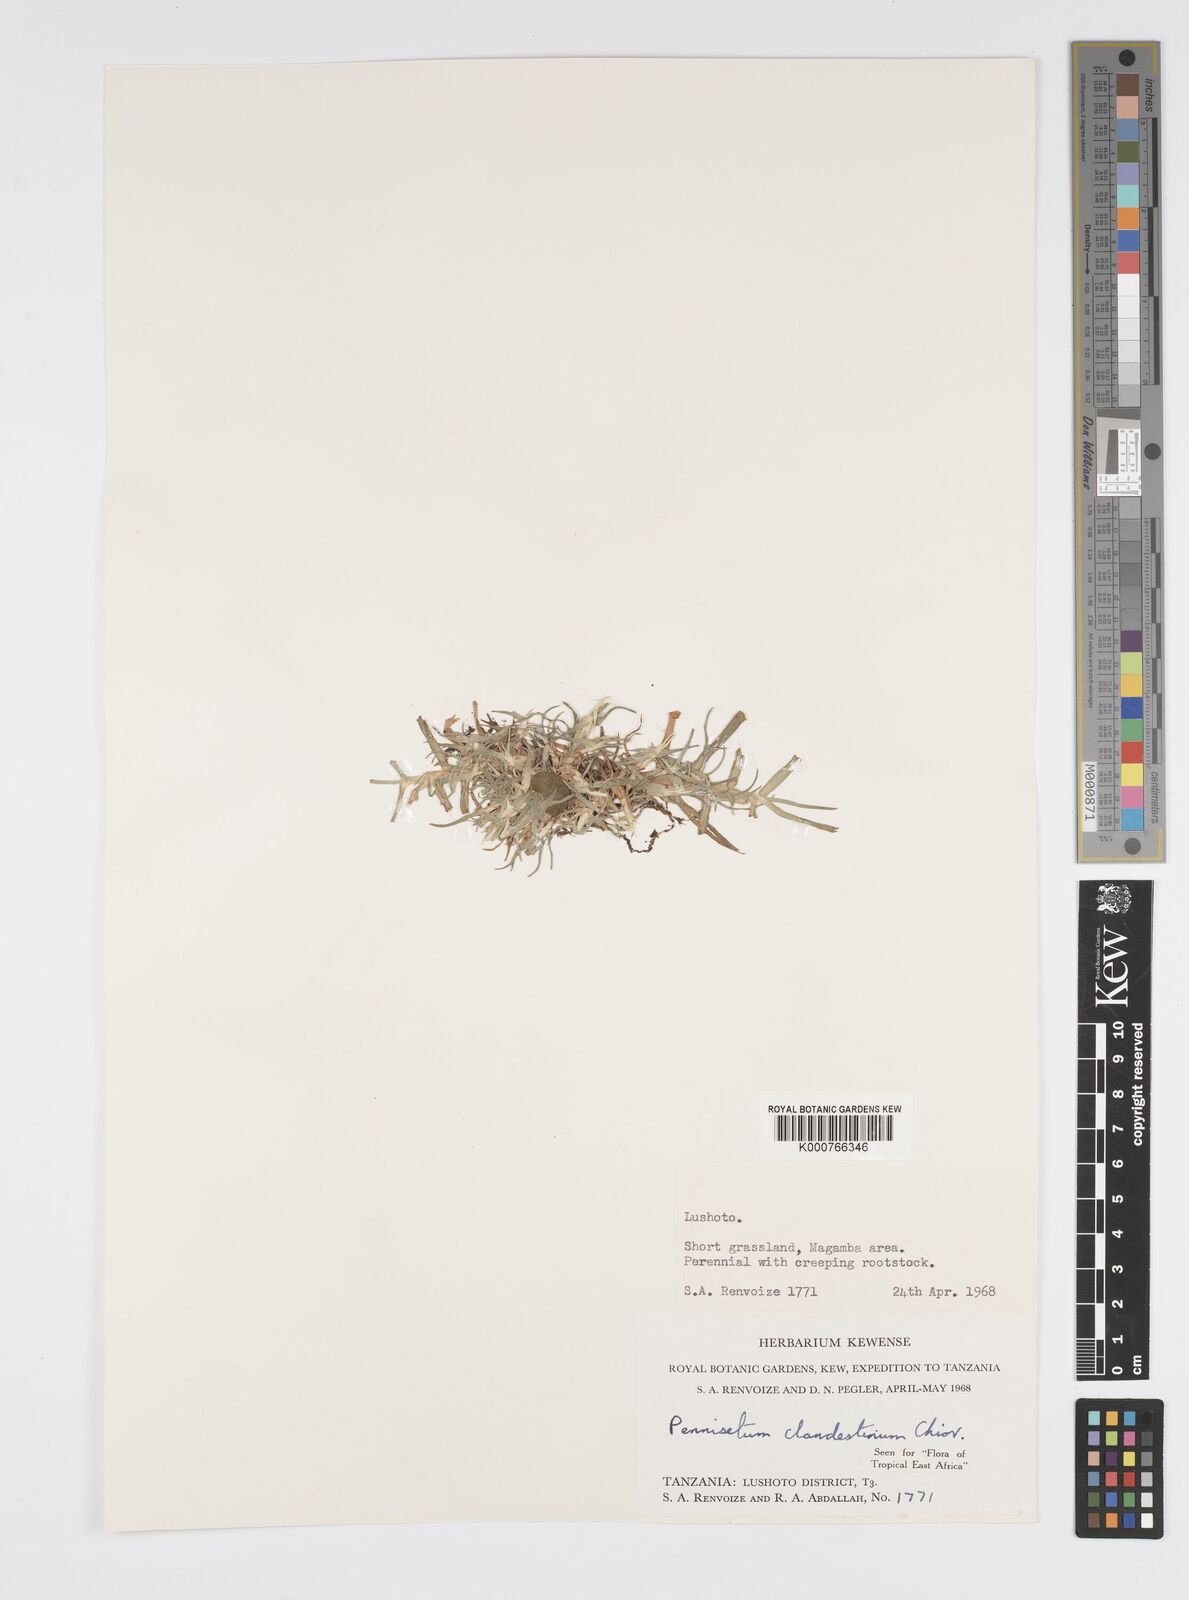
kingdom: Plantae
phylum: Tracheophyta
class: Liliopsida
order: Poales
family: Poaceae
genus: Cenchrus
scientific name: Cenchrus clandestinus
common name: Kikuyugrass
